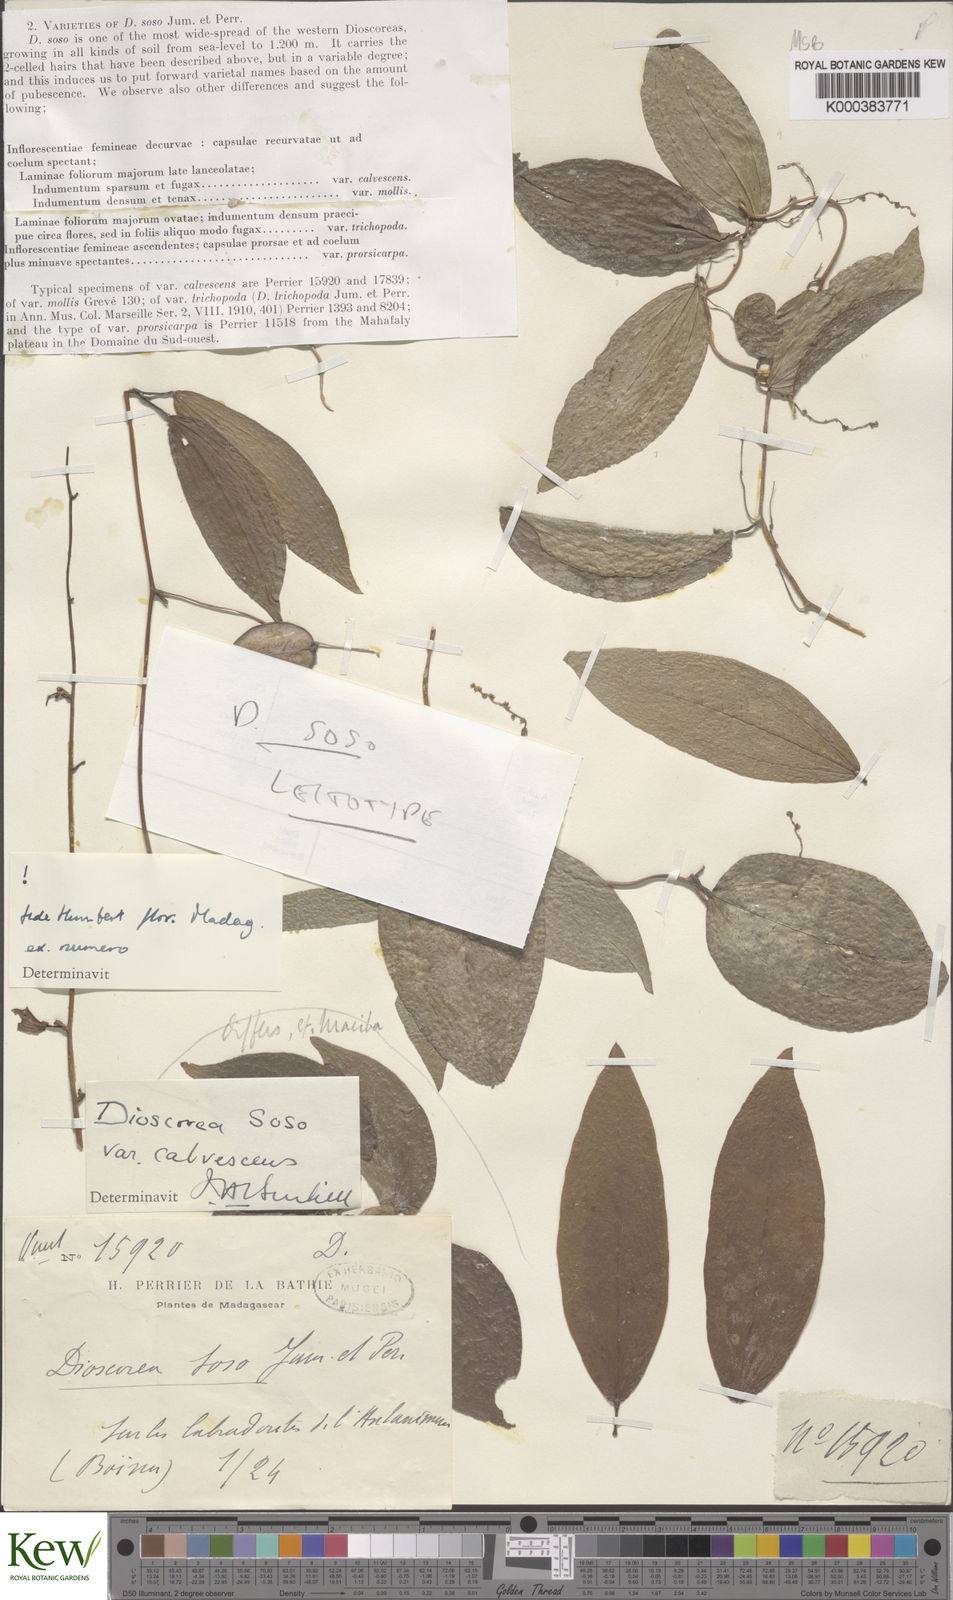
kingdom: Plantae
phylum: Tracheophyta
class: Liliopsida
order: Dioscoreales
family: Dioscoreaceae
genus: Dioscorea
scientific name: Dioscorea
